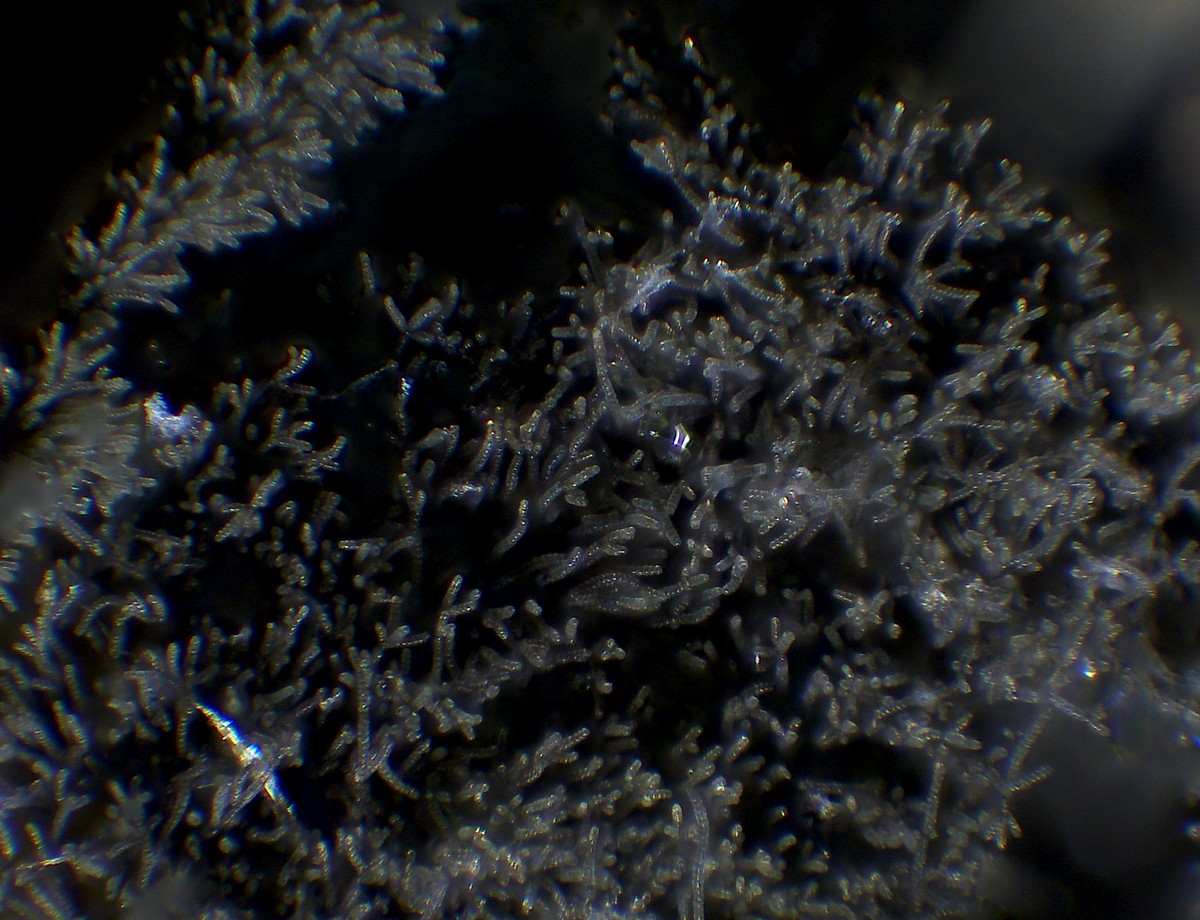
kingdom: Fungi
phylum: Ascomycota
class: Dothideomycetes
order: Mytilinidiales
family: Mytilinidiaceae
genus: Taeniolella
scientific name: Taeniolella stilbospora
